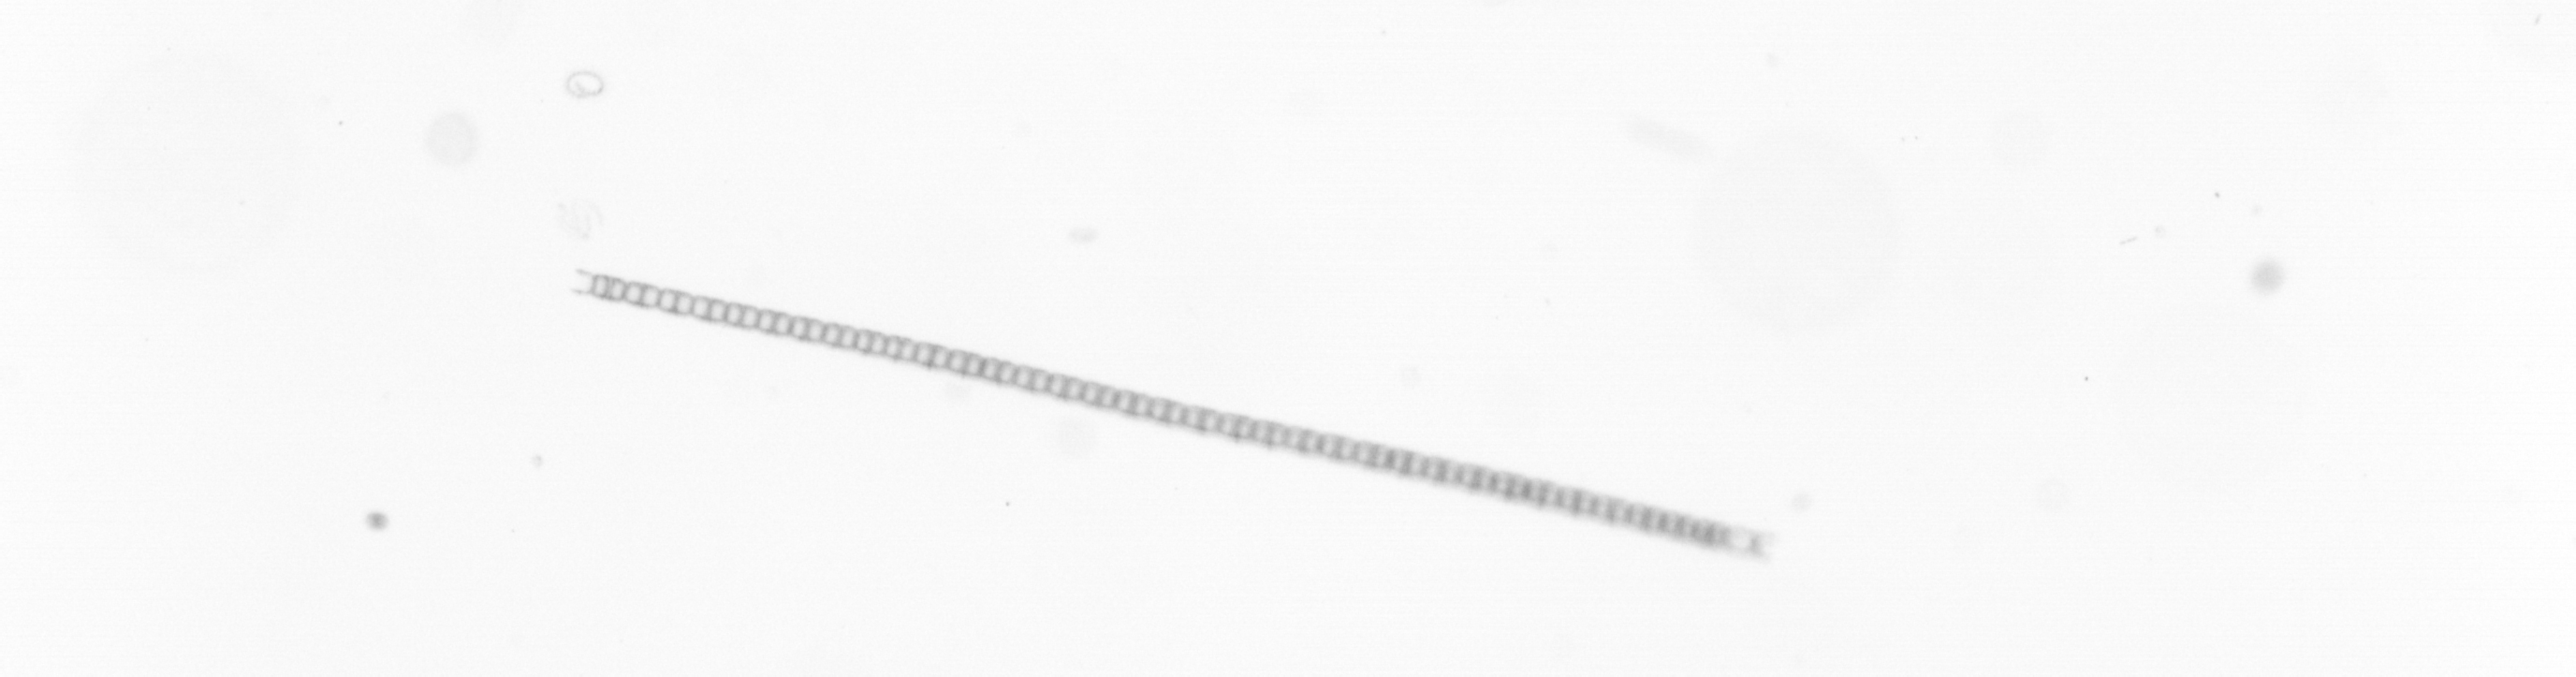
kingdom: Chromista
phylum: Ochrophyta
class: Bacillariophyceae
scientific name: Bacillariophyceae
